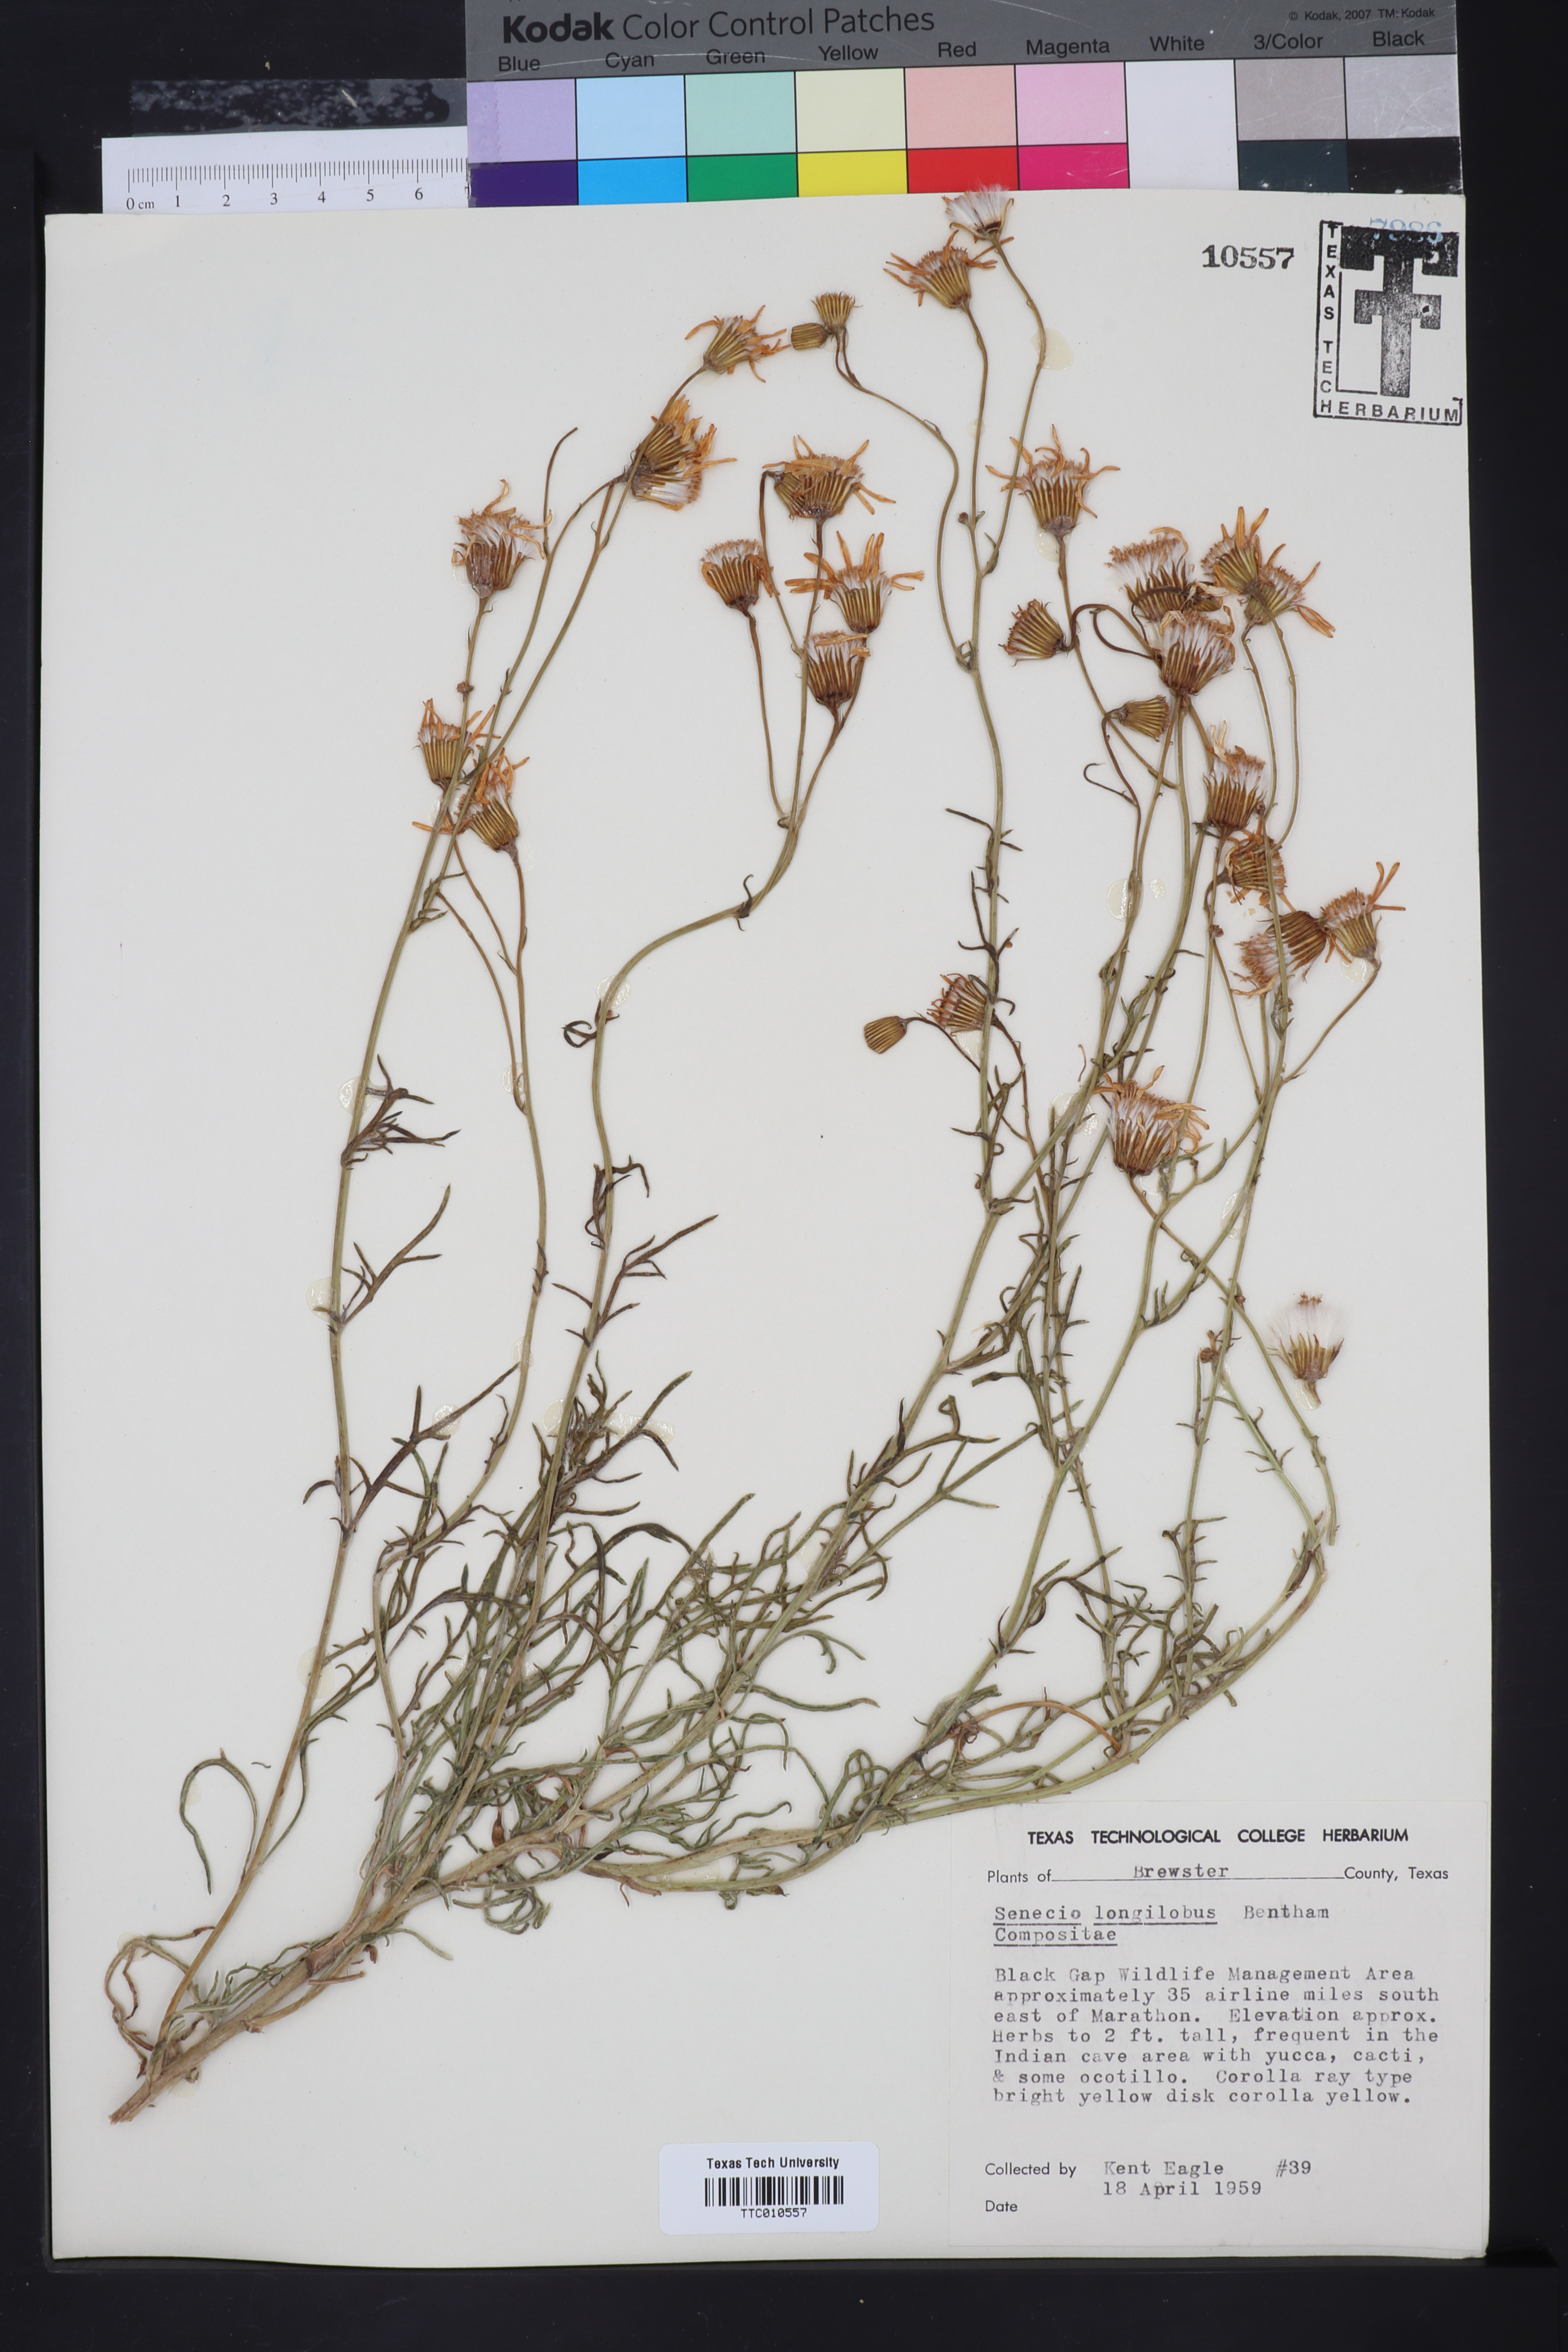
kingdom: Plantae
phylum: Tracheophyta
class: Magnoliopsida
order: Asterales
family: Asteraceae
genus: Senecio
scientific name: Senecio flaccidus
